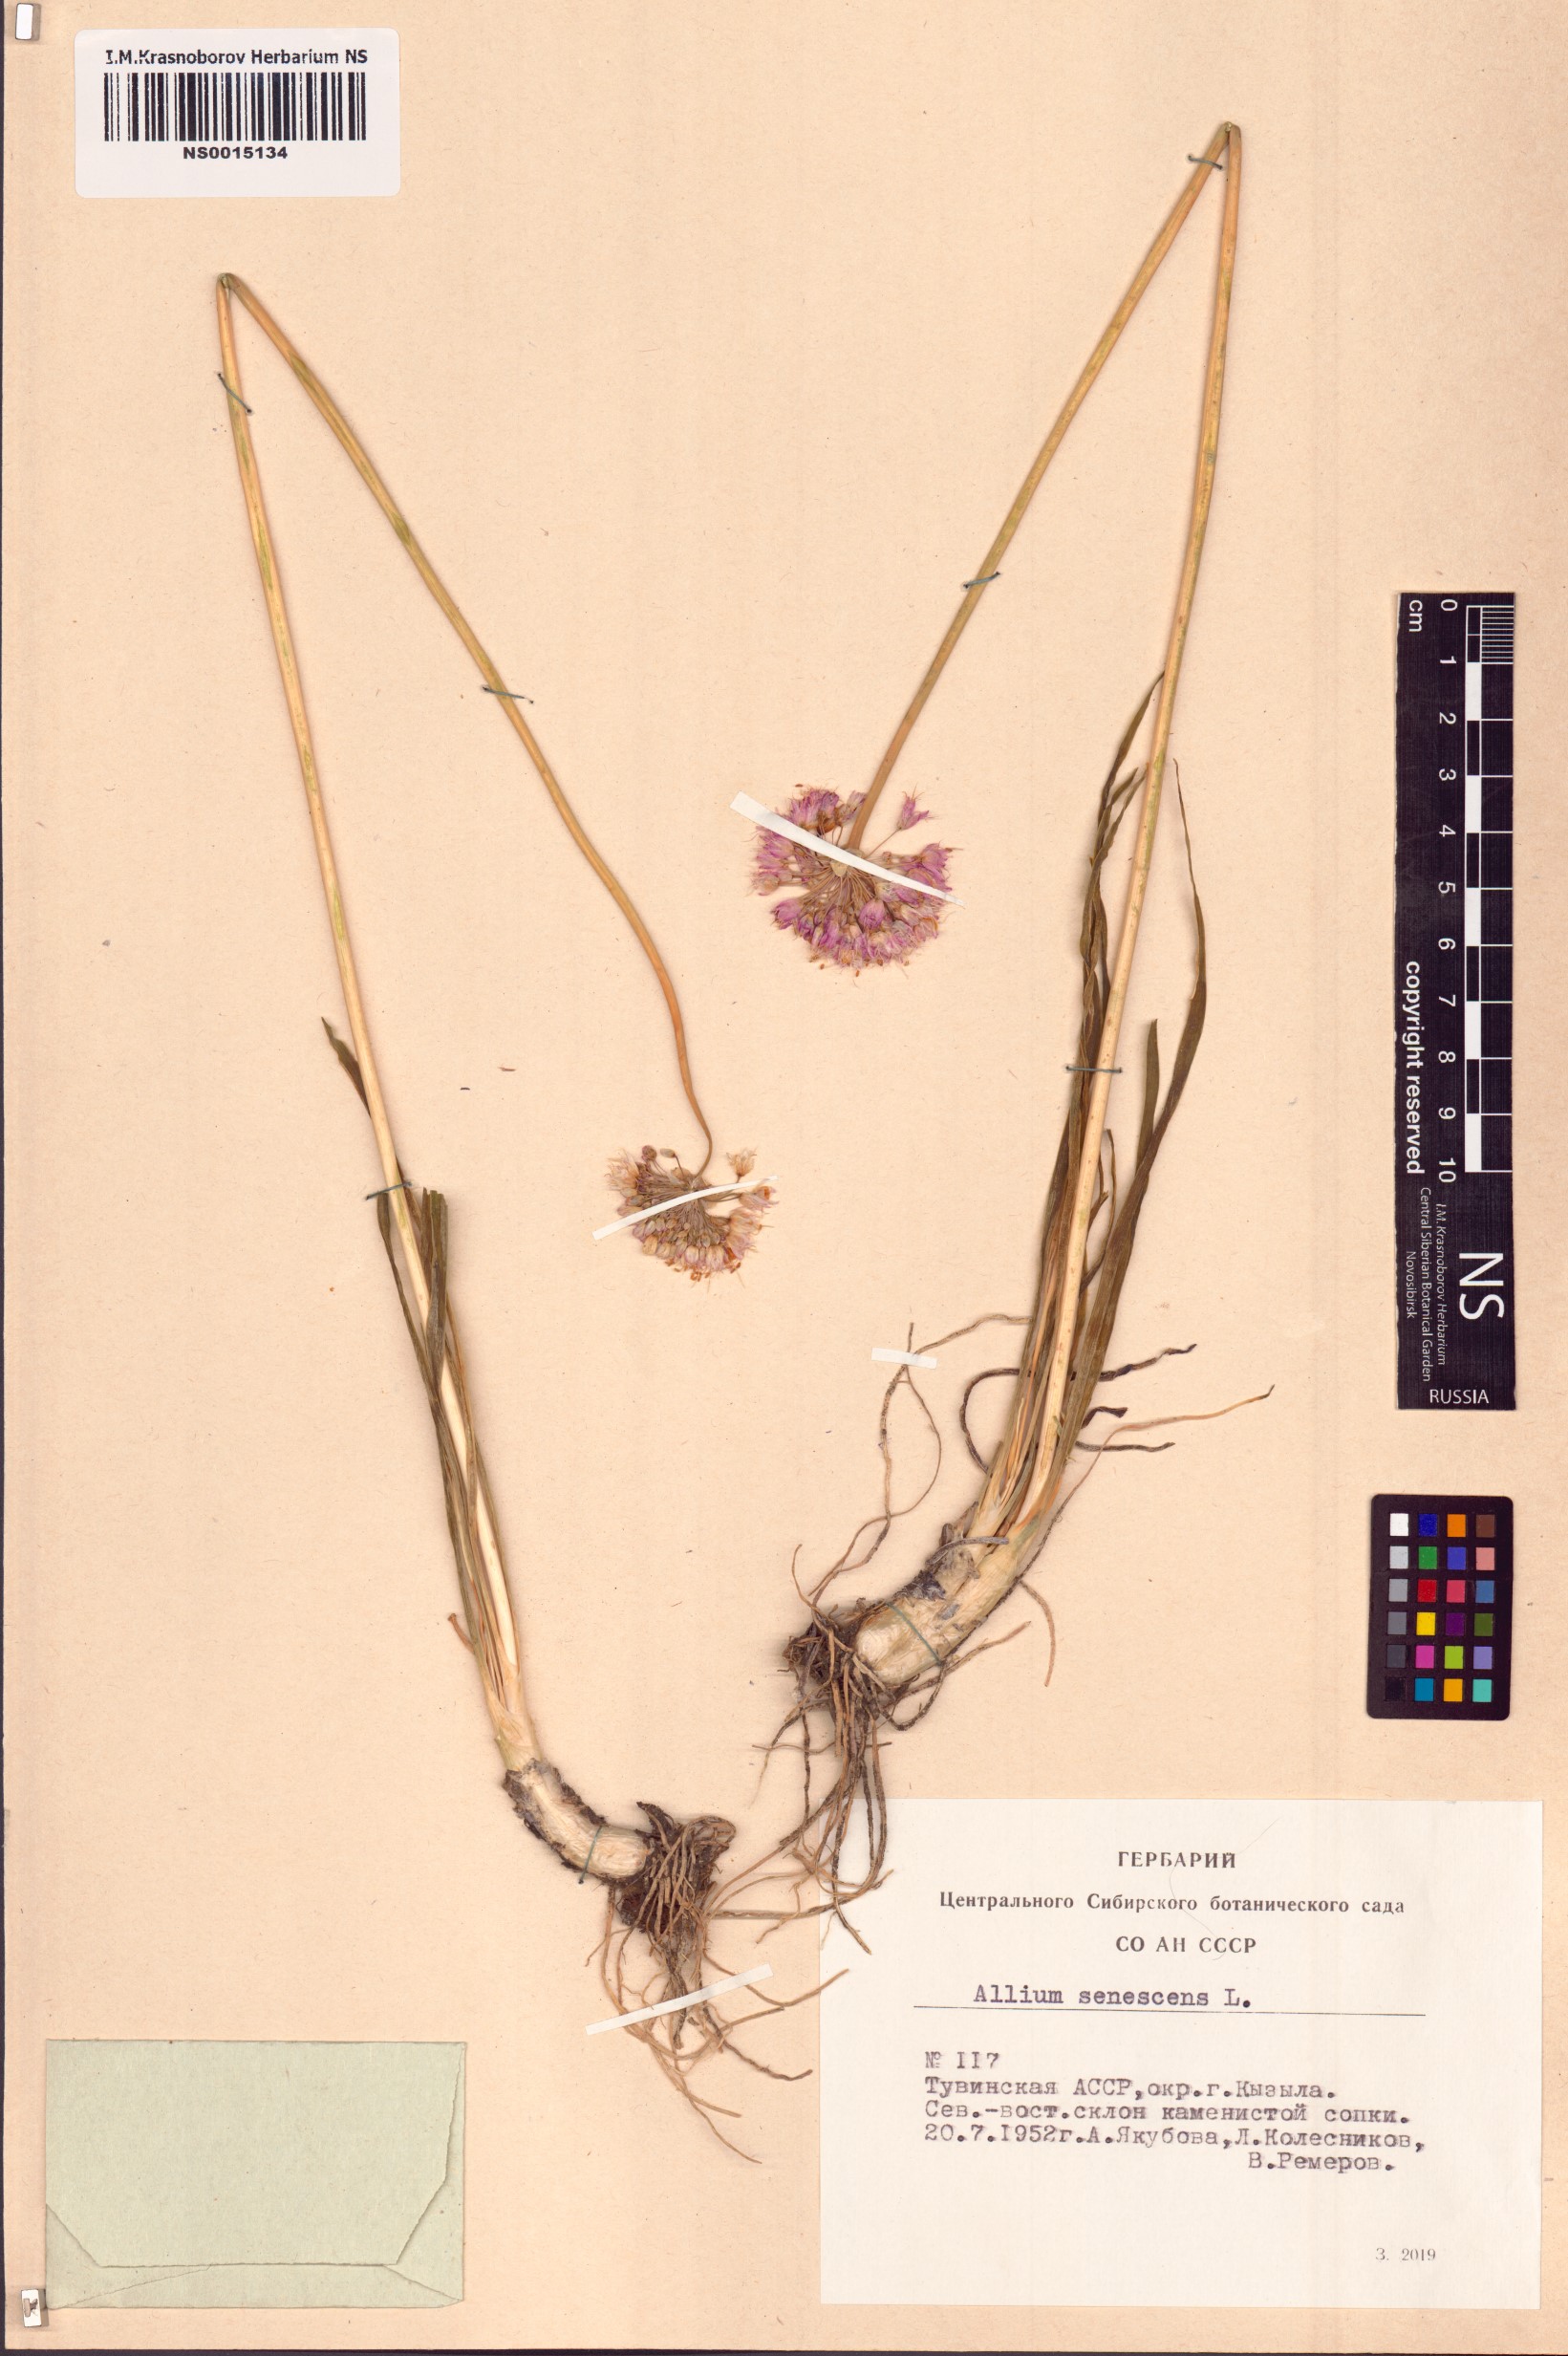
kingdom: Plantae
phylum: Tracheophyta
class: Liliopsida
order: Asparagales
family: Amaryllidaceae
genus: Allium
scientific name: Allium senescens
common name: German garlic
